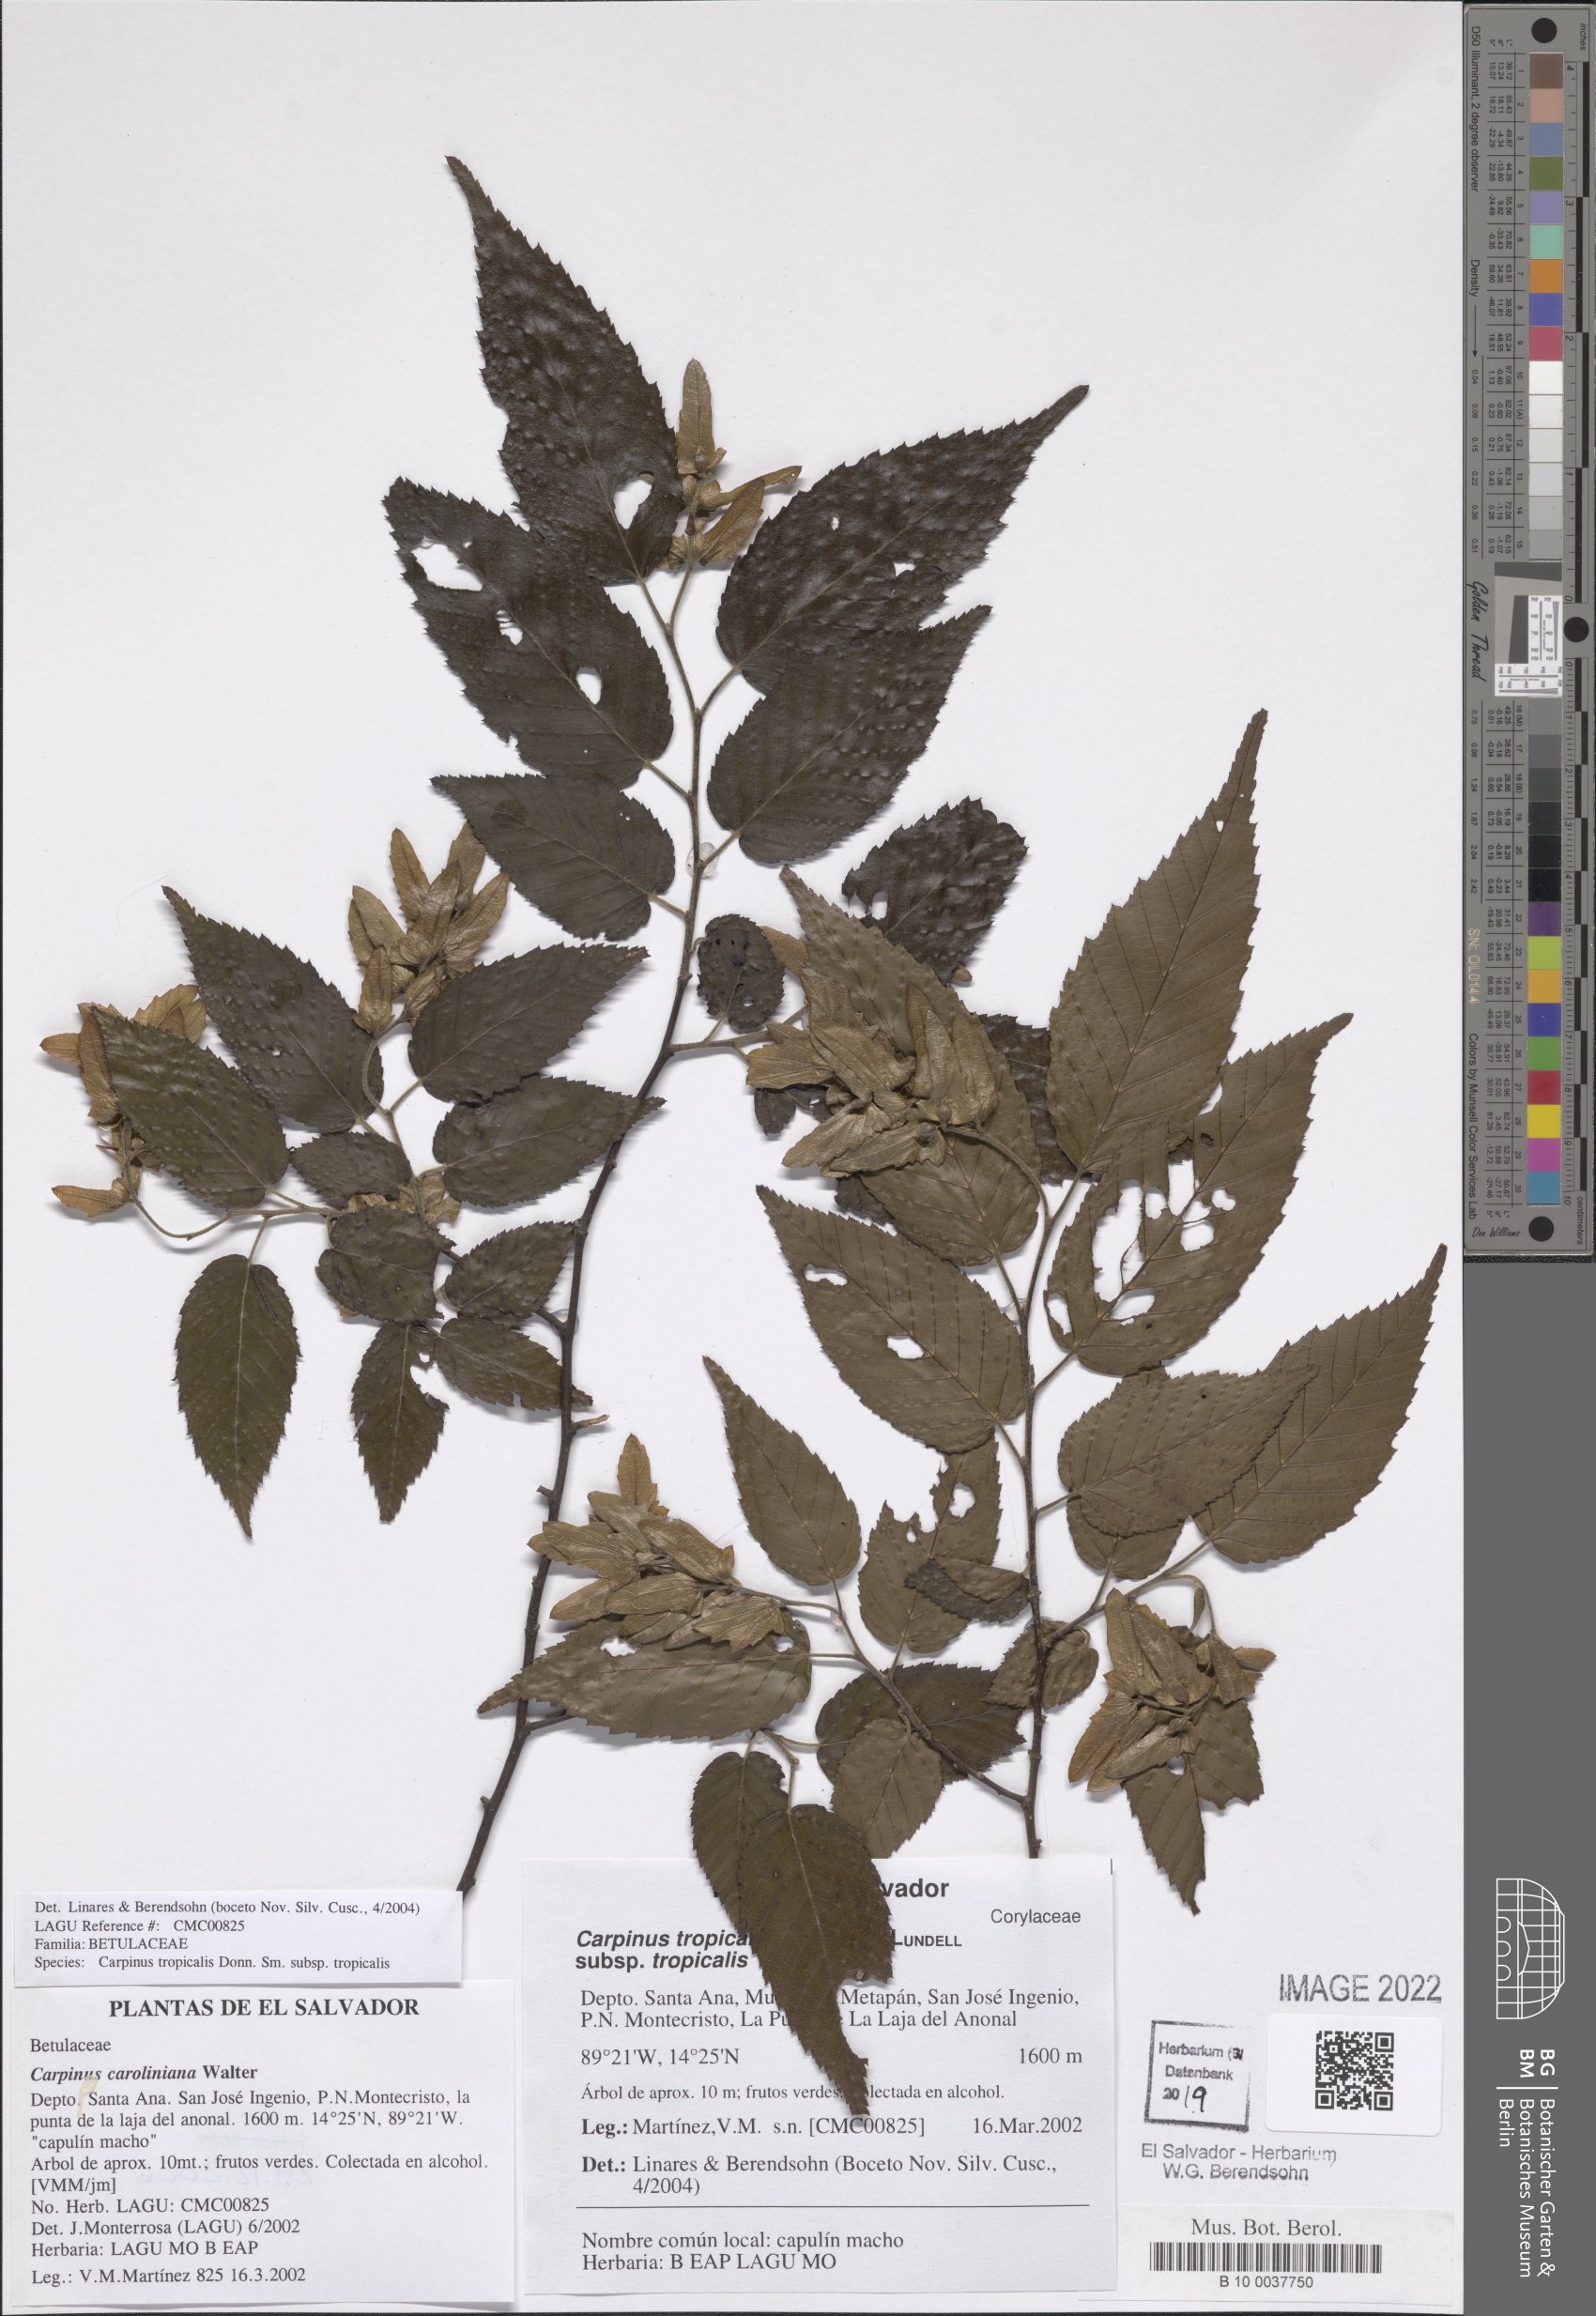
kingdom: Plantae
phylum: Tracheophyta
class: Magnoliopsida
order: Fagales
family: Betulaceae
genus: Carpinus
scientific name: Carpinus tropicalis
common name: Hornbeam
